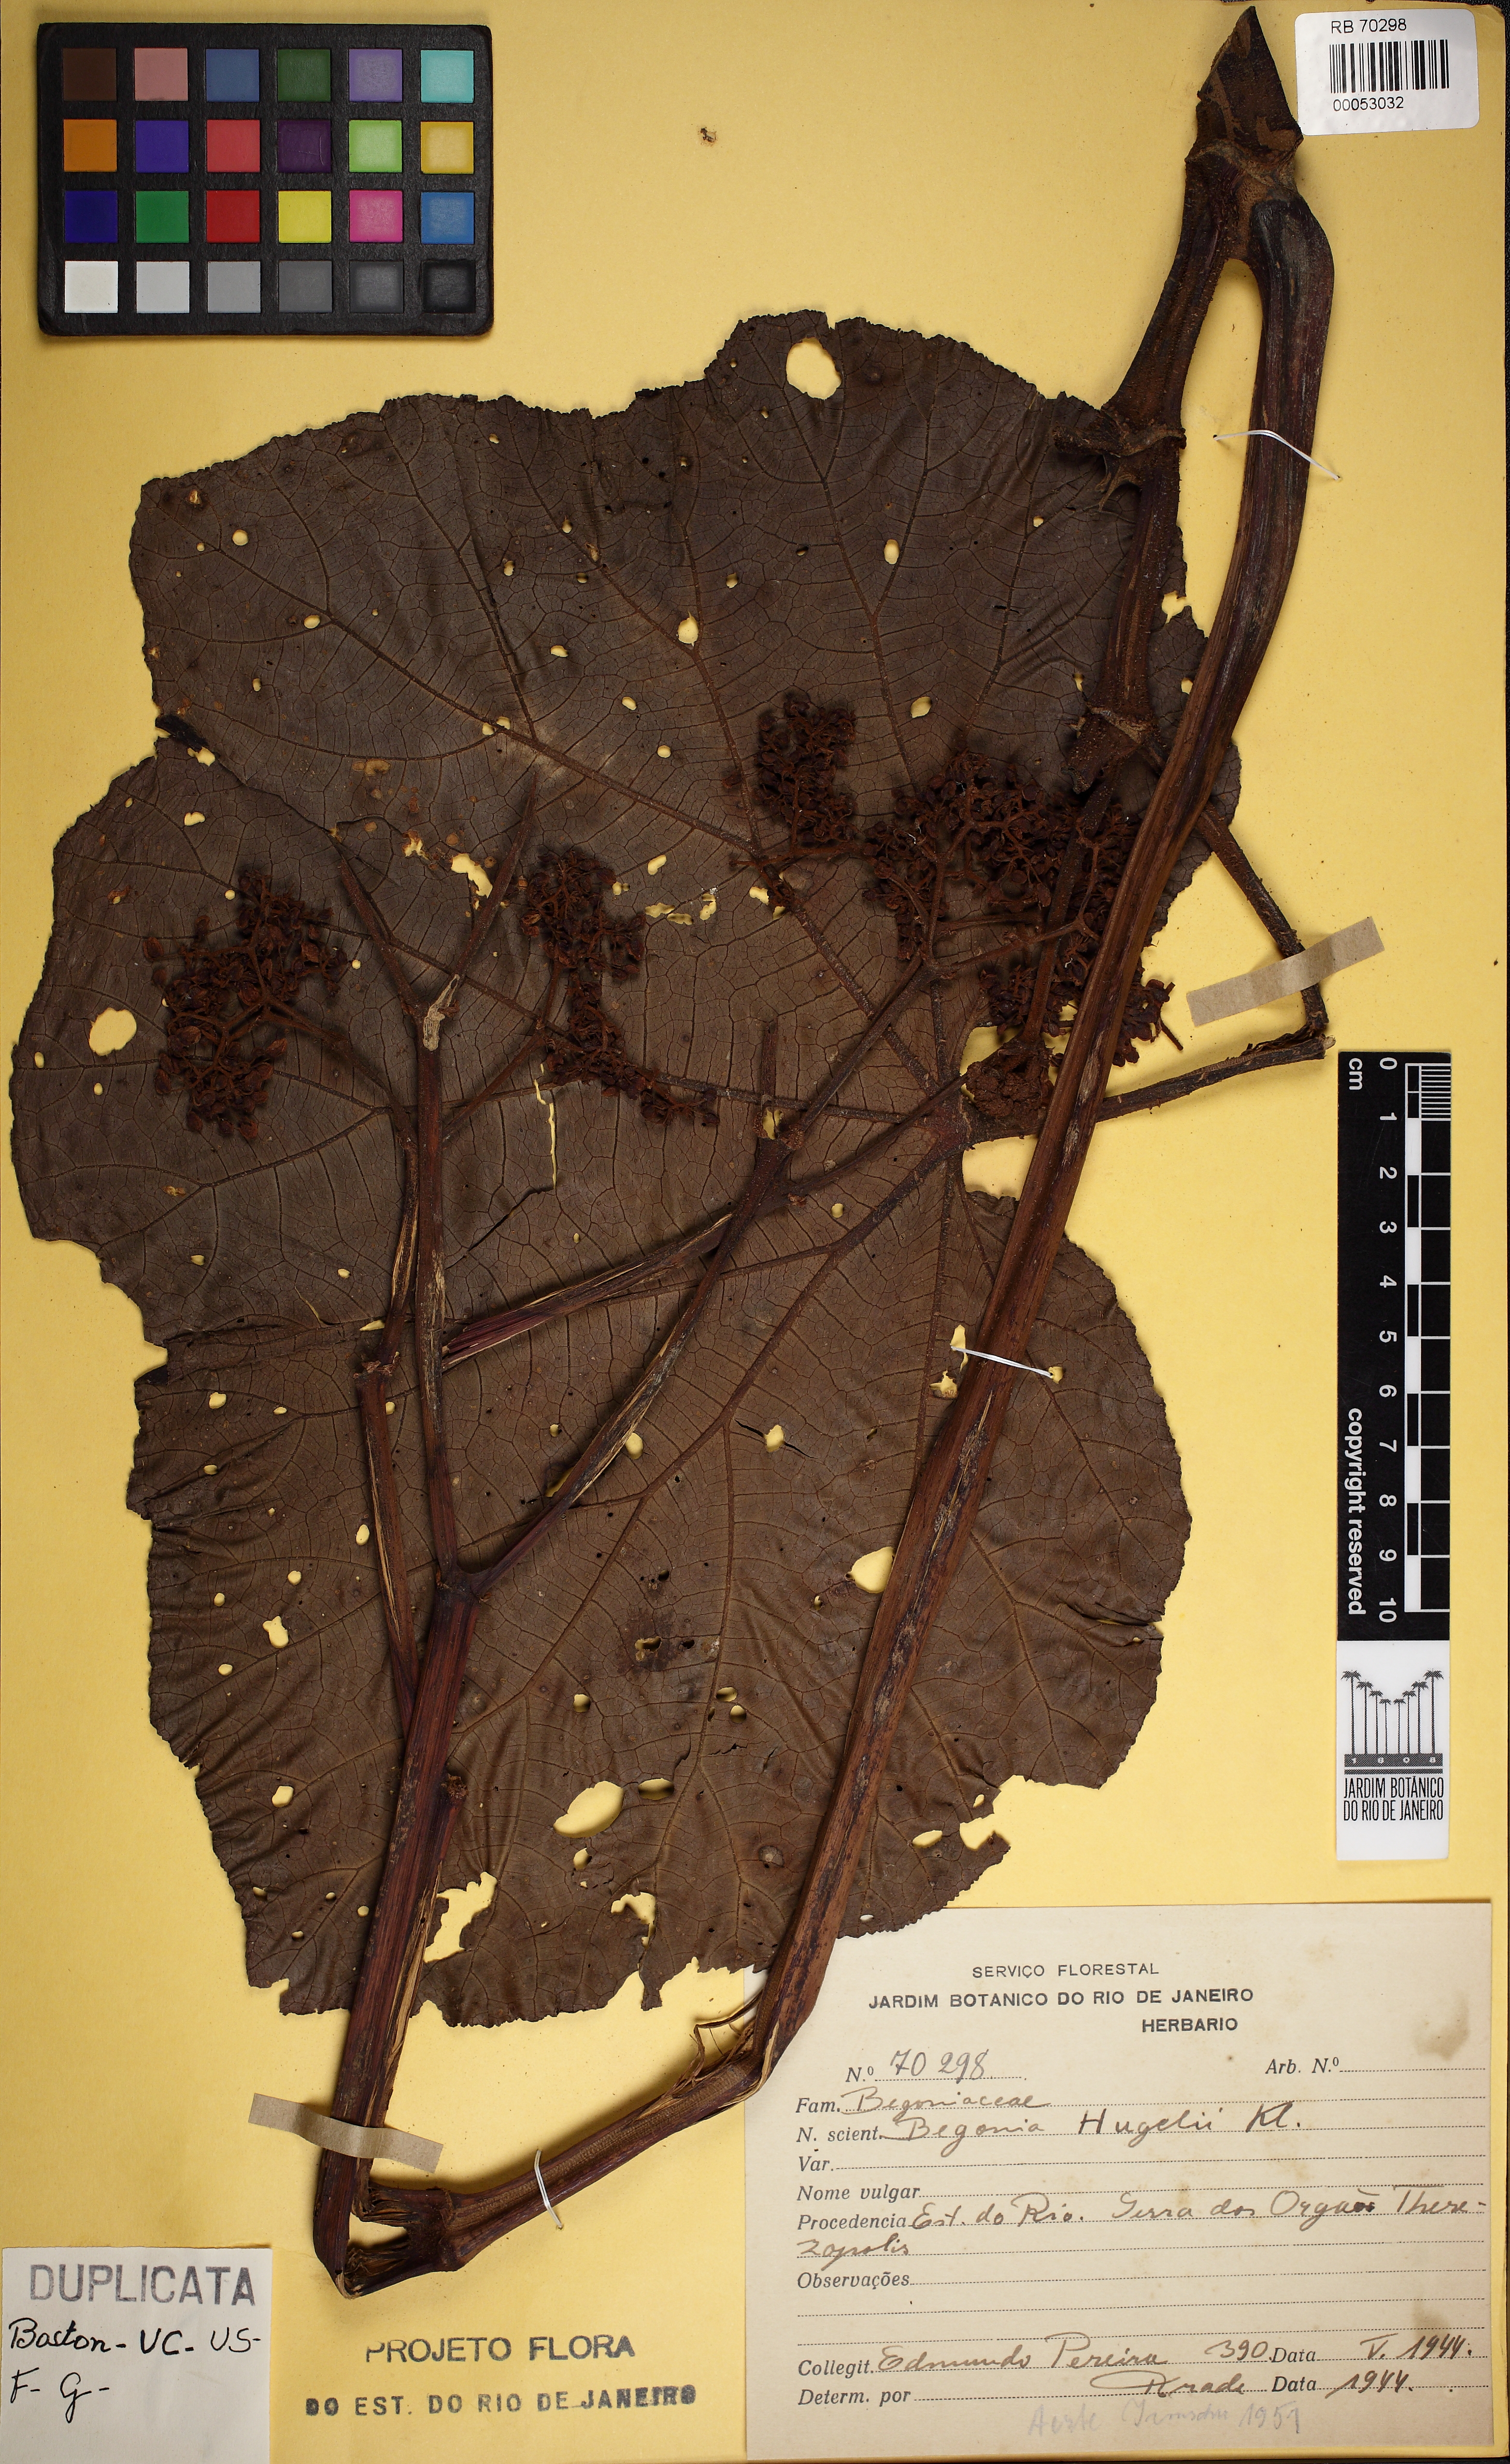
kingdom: Plantae
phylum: Tracheophyta
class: Magnoliopsida
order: Cucurbitales
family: Begoniaceae
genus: Begonia
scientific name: Begonia huegelii
